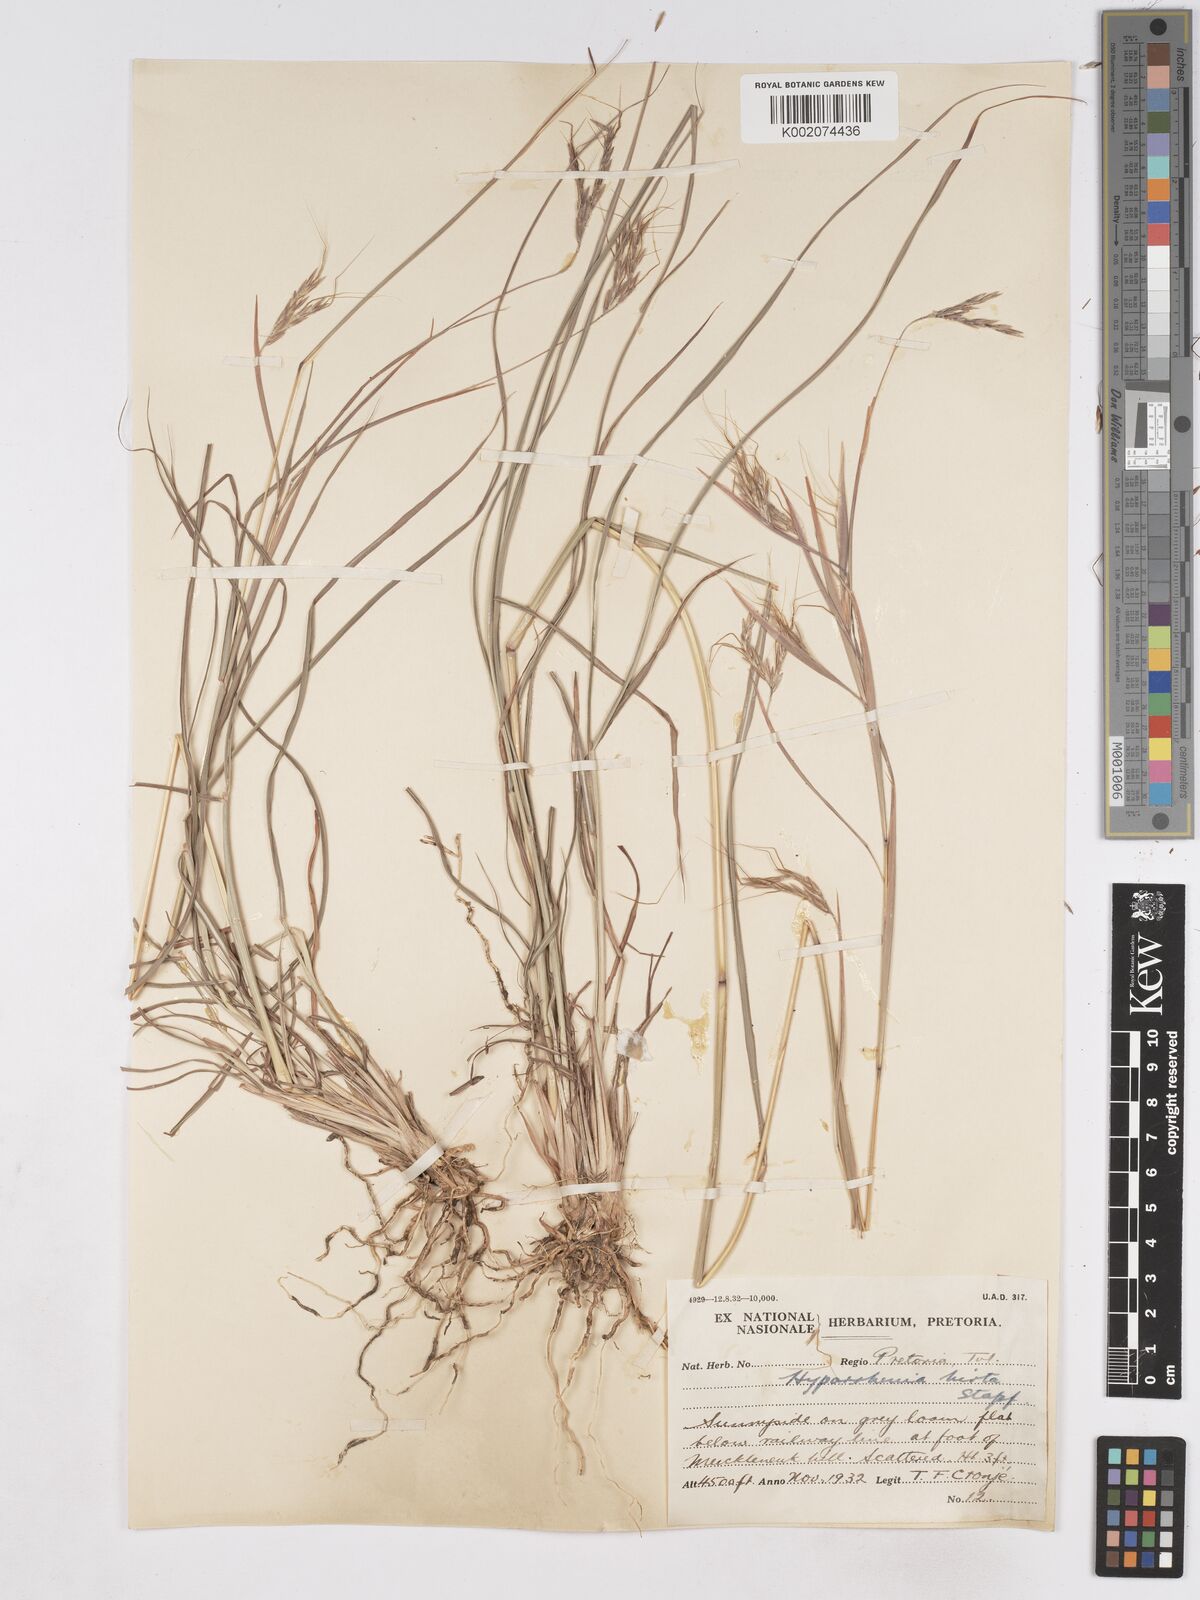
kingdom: Plantae
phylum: Tracheophyta
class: Liliopsida
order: Poales
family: Poaceae
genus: Hyparrhenia
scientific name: Hyparrhenia hirta
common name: Thatching grass
